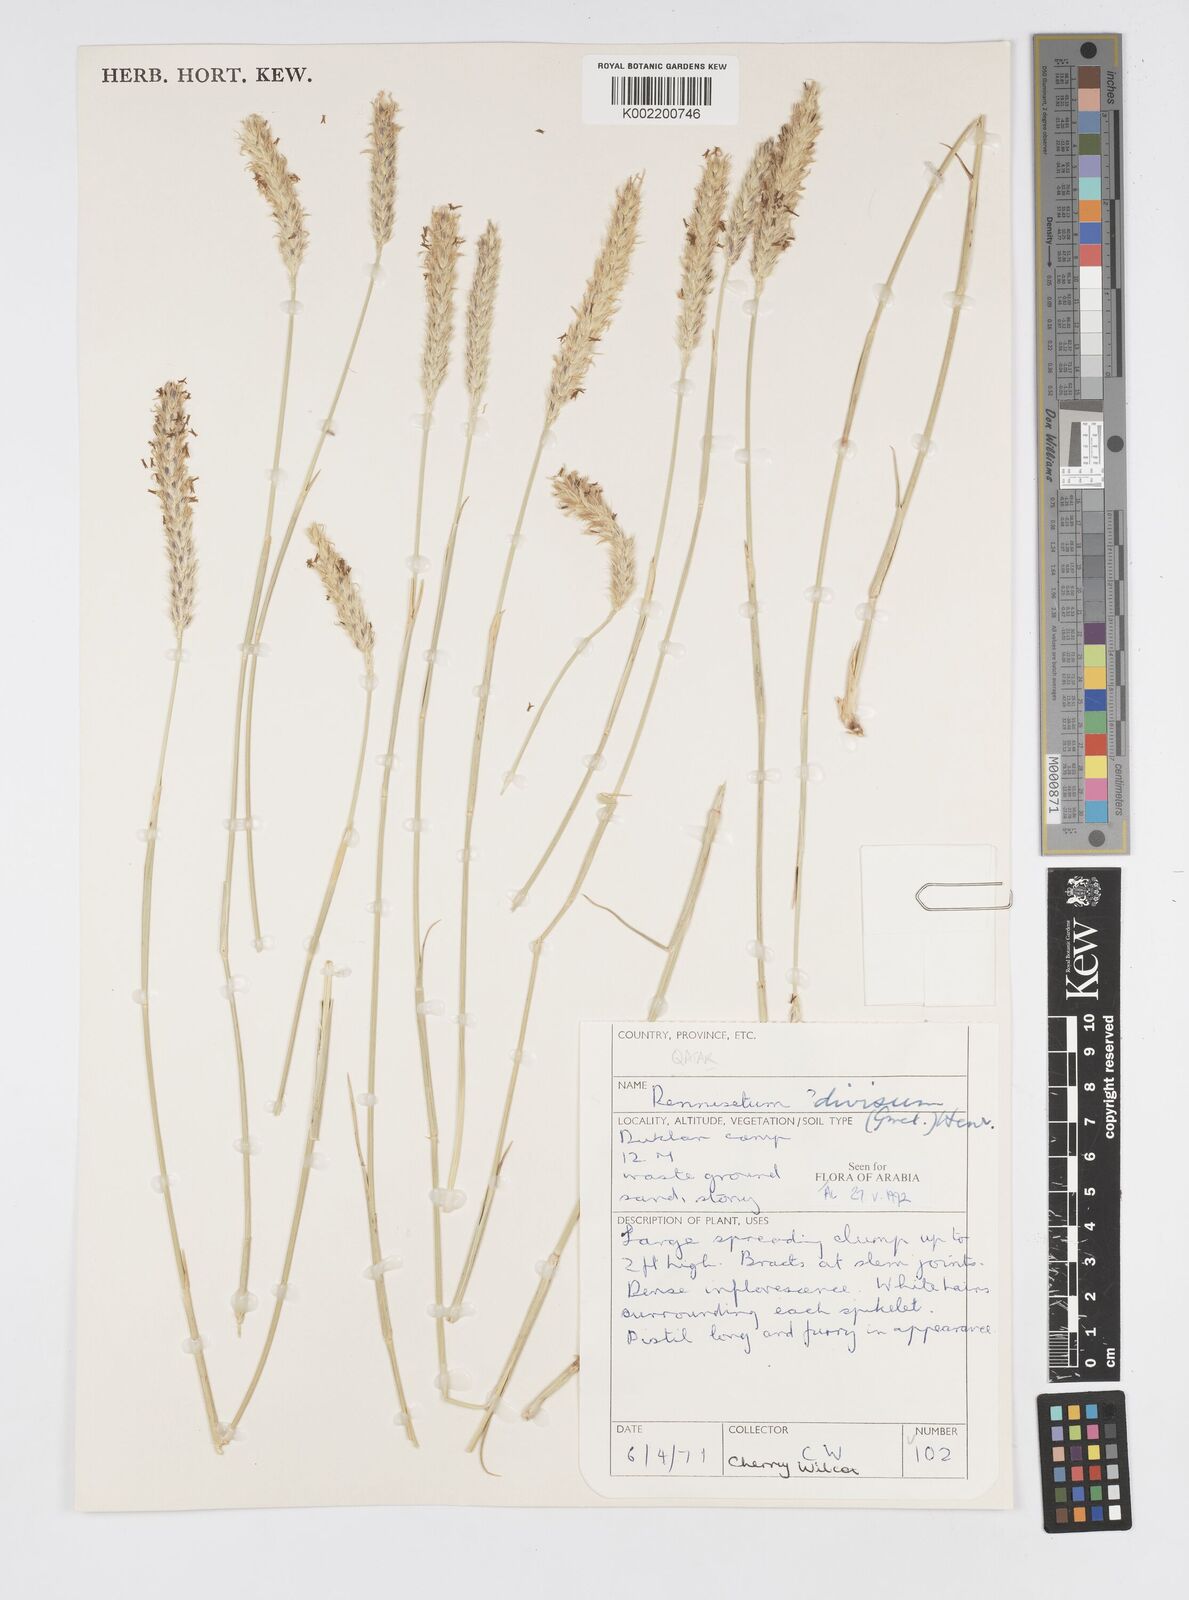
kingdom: Plantae
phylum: Tracheophyta
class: Liliopsida
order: Poales
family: Poaceae
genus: Cenchrus
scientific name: Cenchrus divisus
